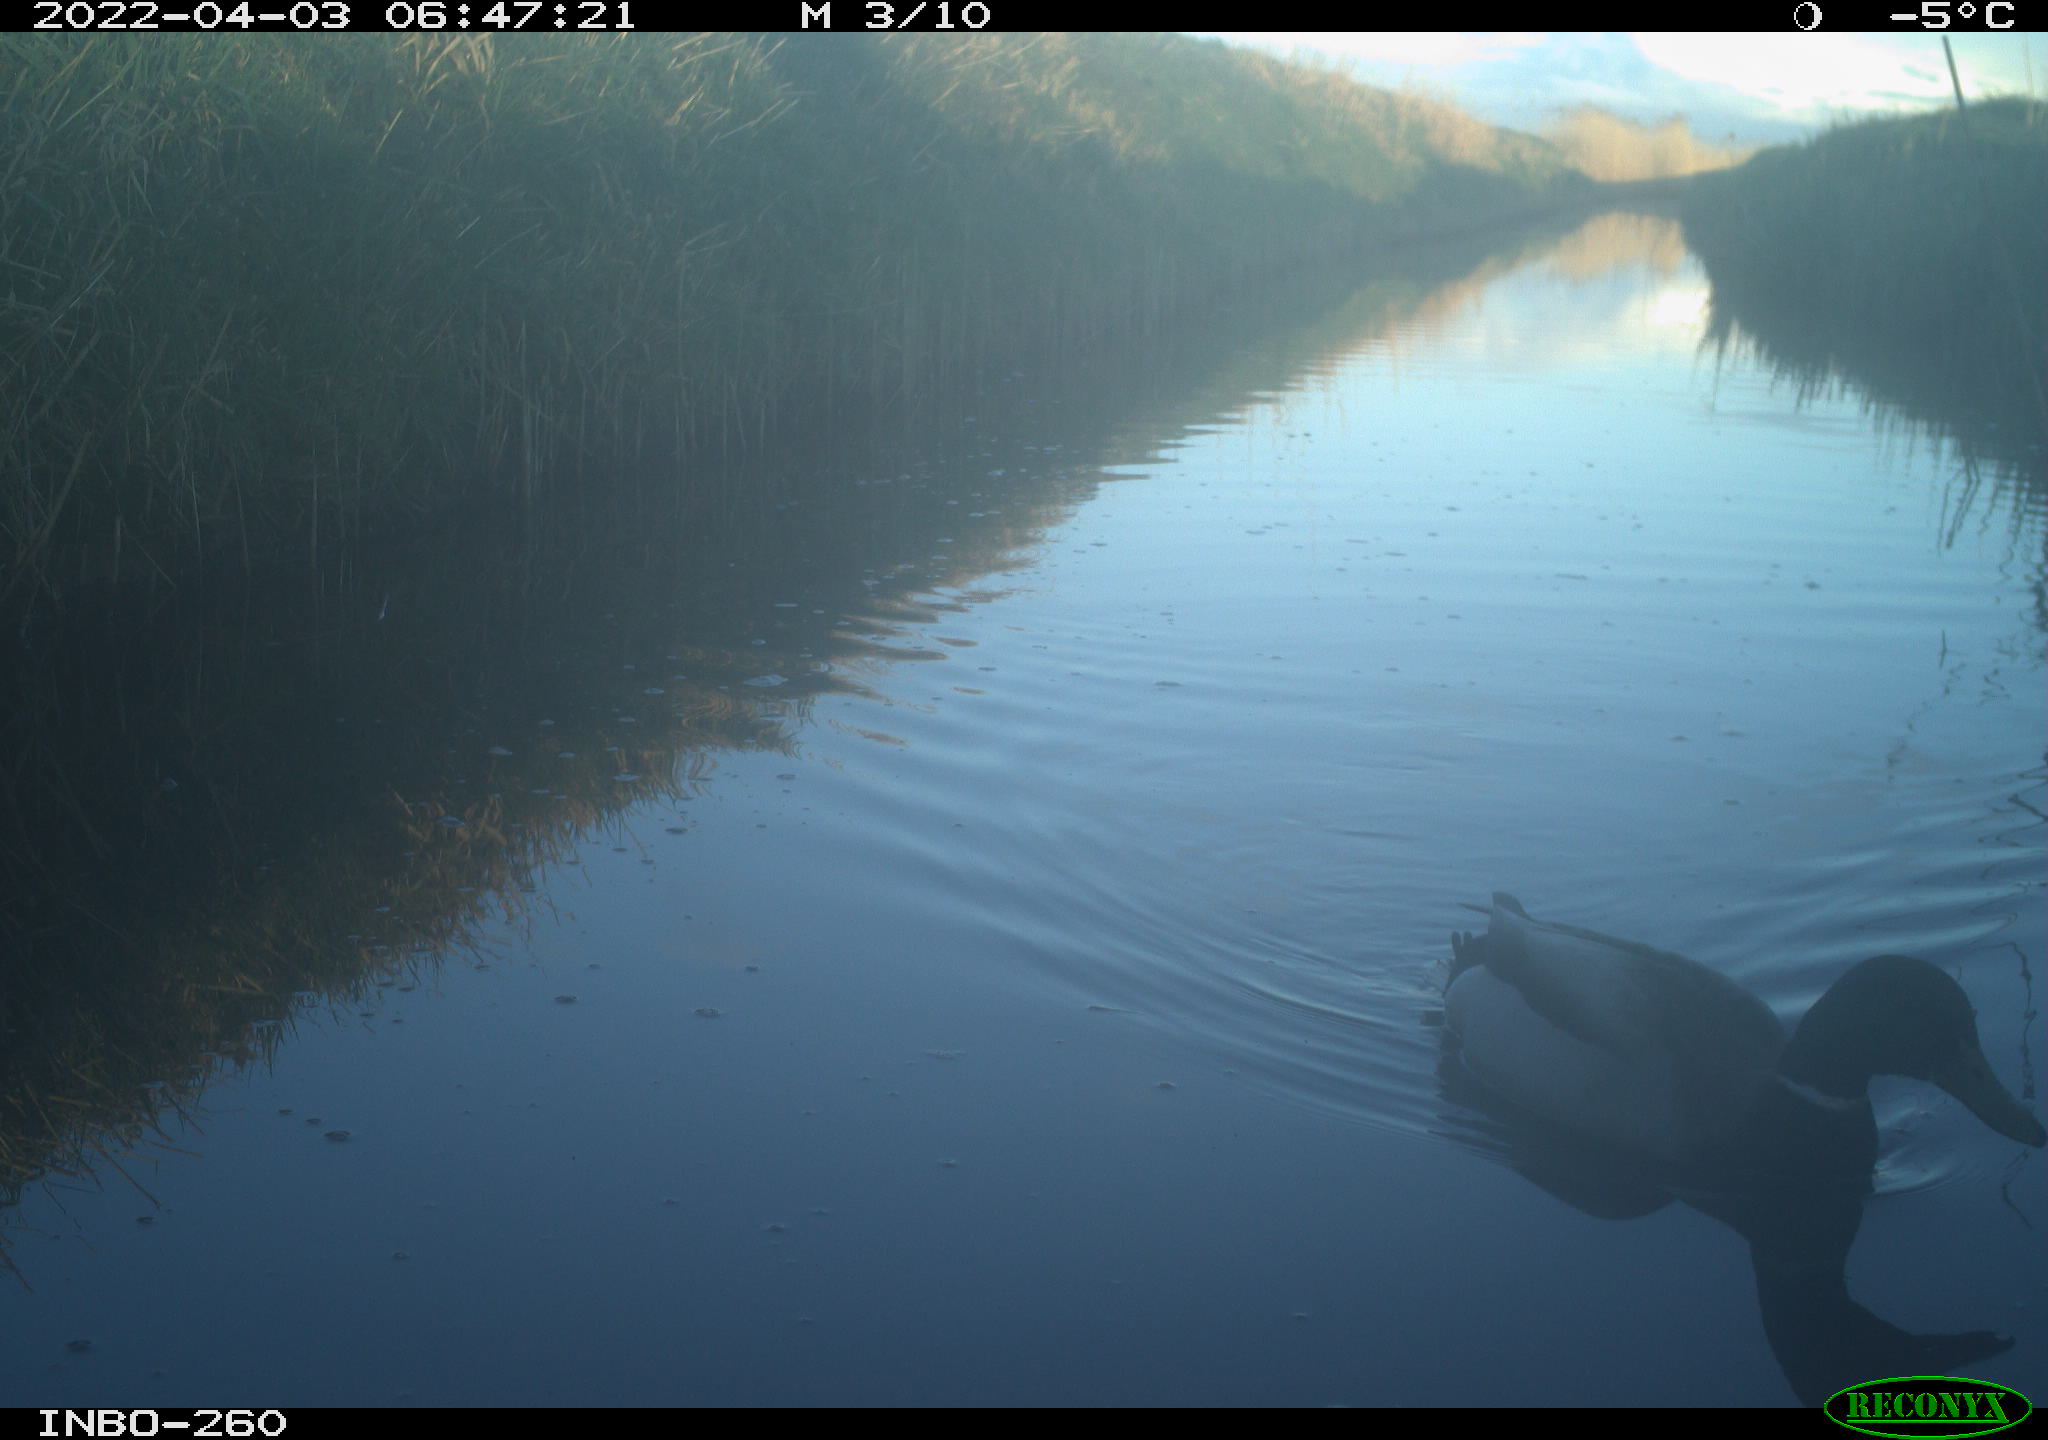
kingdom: Animalia
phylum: Chordata
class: Aves
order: Gruiformes
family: Rallidae
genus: Gallinula
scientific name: Gallinula chloropus
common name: Common moorhen
